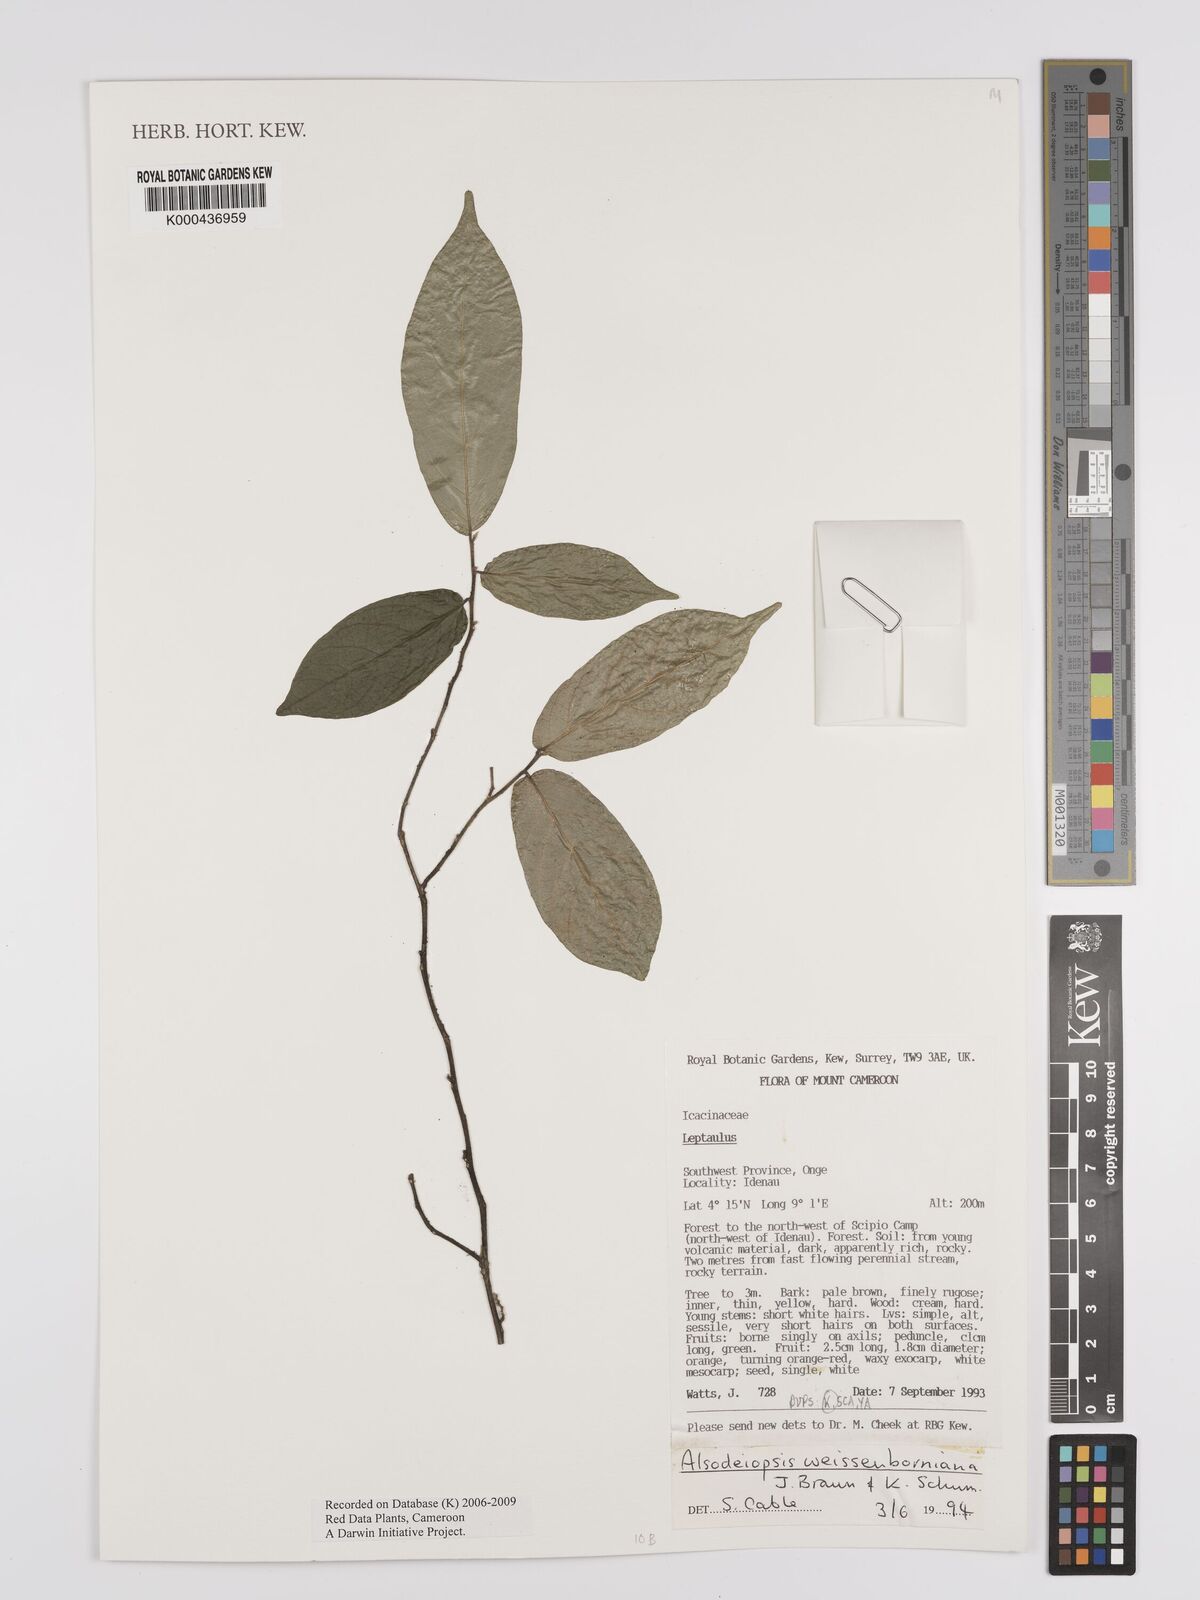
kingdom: Plantae
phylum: Tracheophyta
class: Magnoliopsida
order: Icacinales
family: Icacinaceae
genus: Alsodeiopsis
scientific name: Alsodeiopsis mannii
